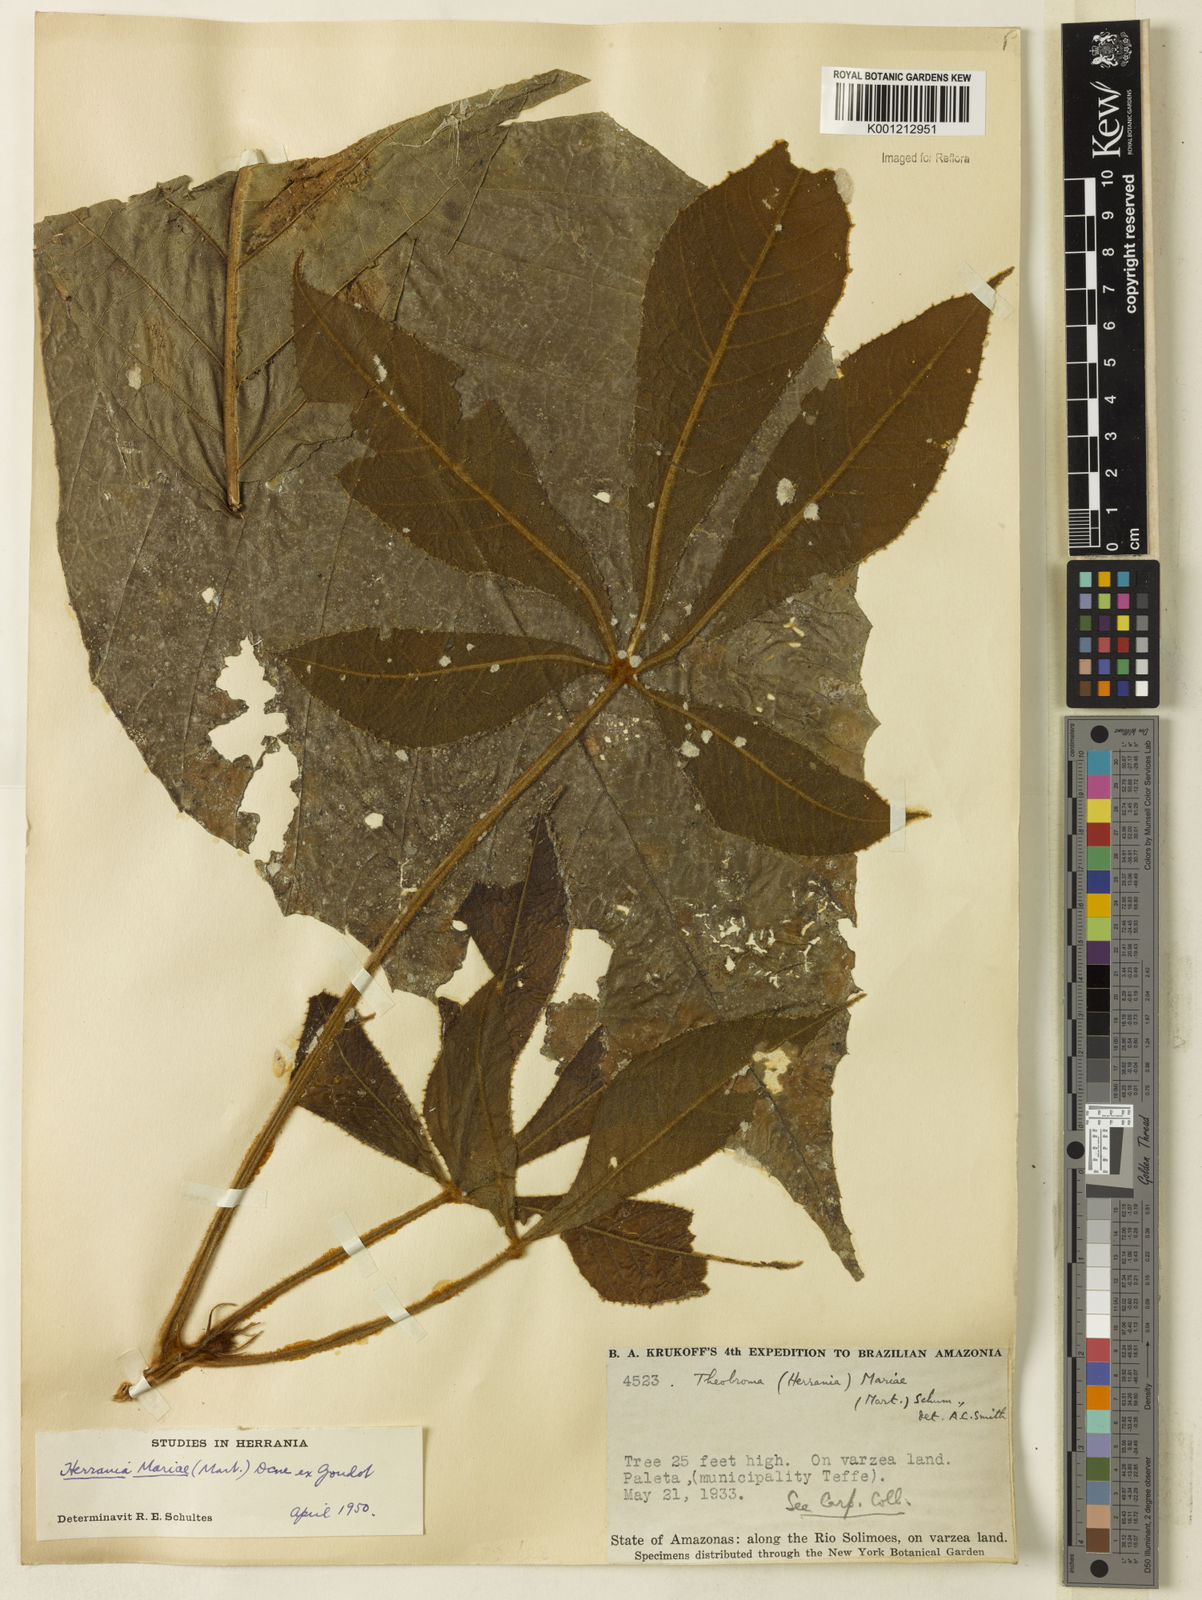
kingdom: Plantae
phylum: Tracheophyta
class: Magnoliopsida
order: Malvales
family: Malvaceae
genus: Herrania
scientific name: Herrania mariae
